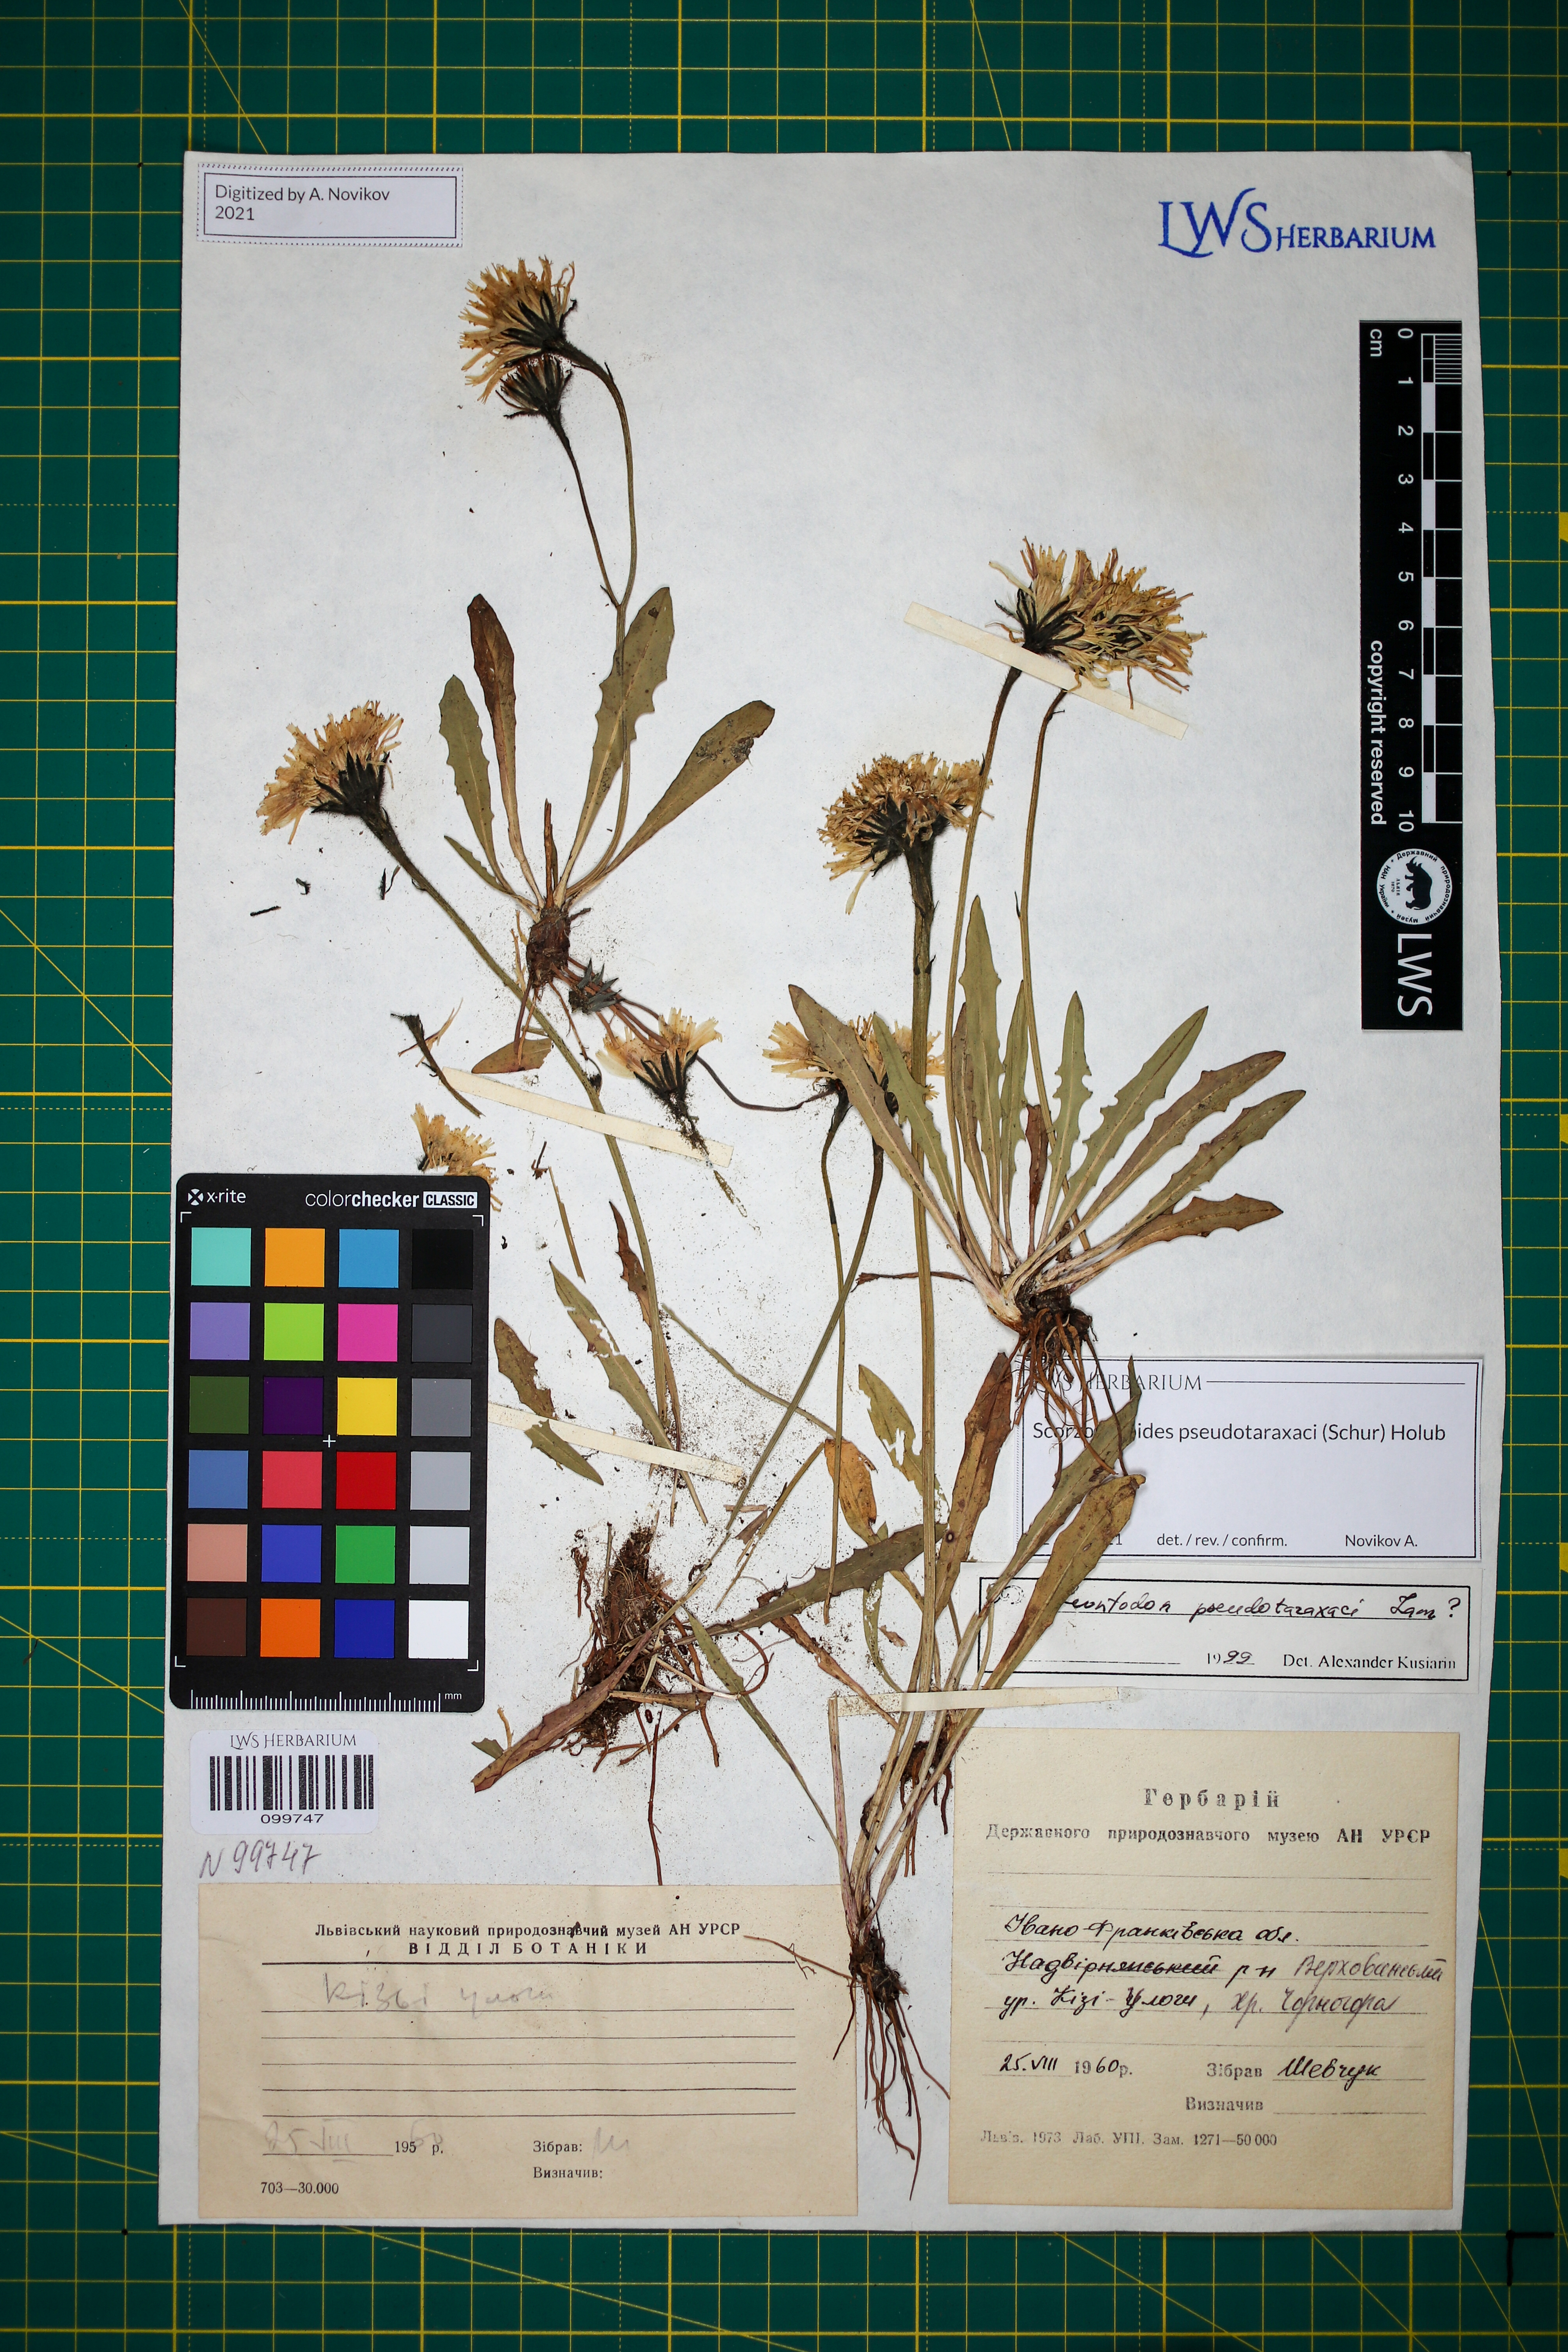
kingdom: Plantae
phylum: Tracheophyta
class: Magnoliopsida
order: Asterales
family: Asteraceae
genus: Scorzoneroides
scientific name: Scorzoneroides pseudotaraxaci
